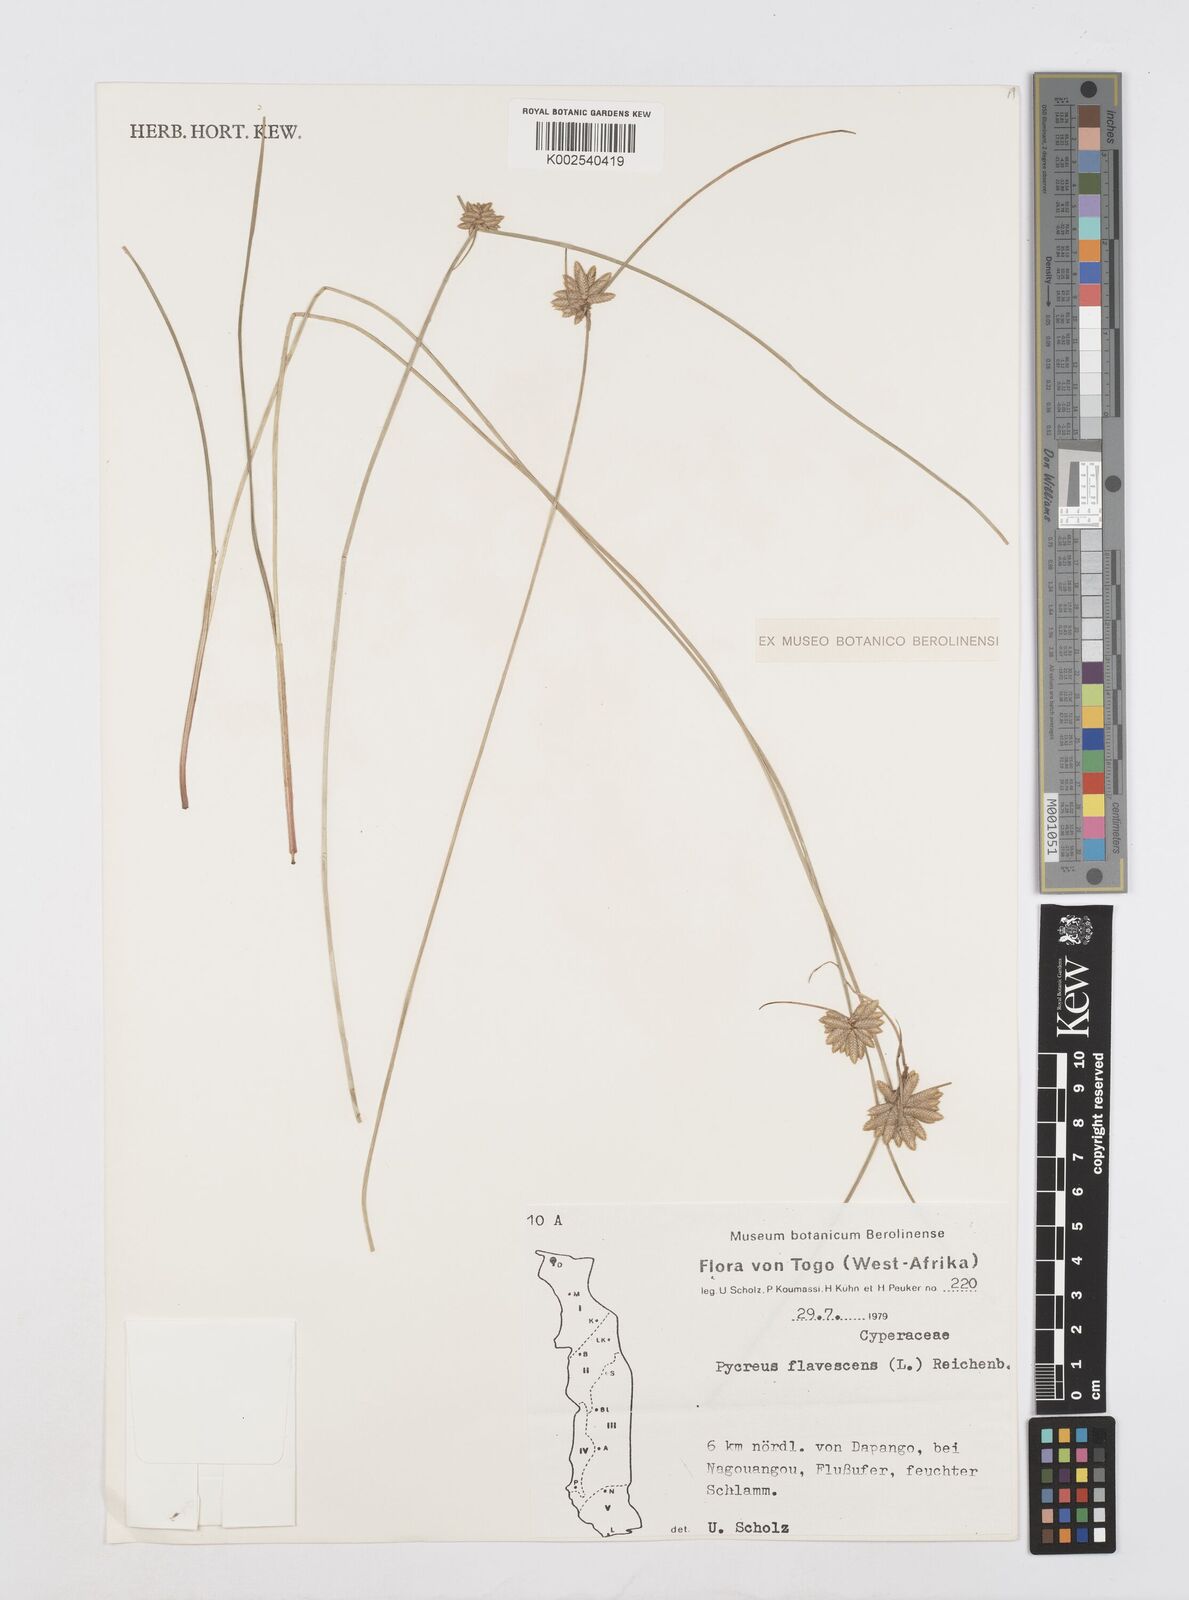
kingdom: Plantae
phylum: Tracheophyta
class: Liliopsida
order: Poales
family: Cyperaceae
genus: Cyperus
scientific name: Cyperus flavescens
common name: Yellow galingale
